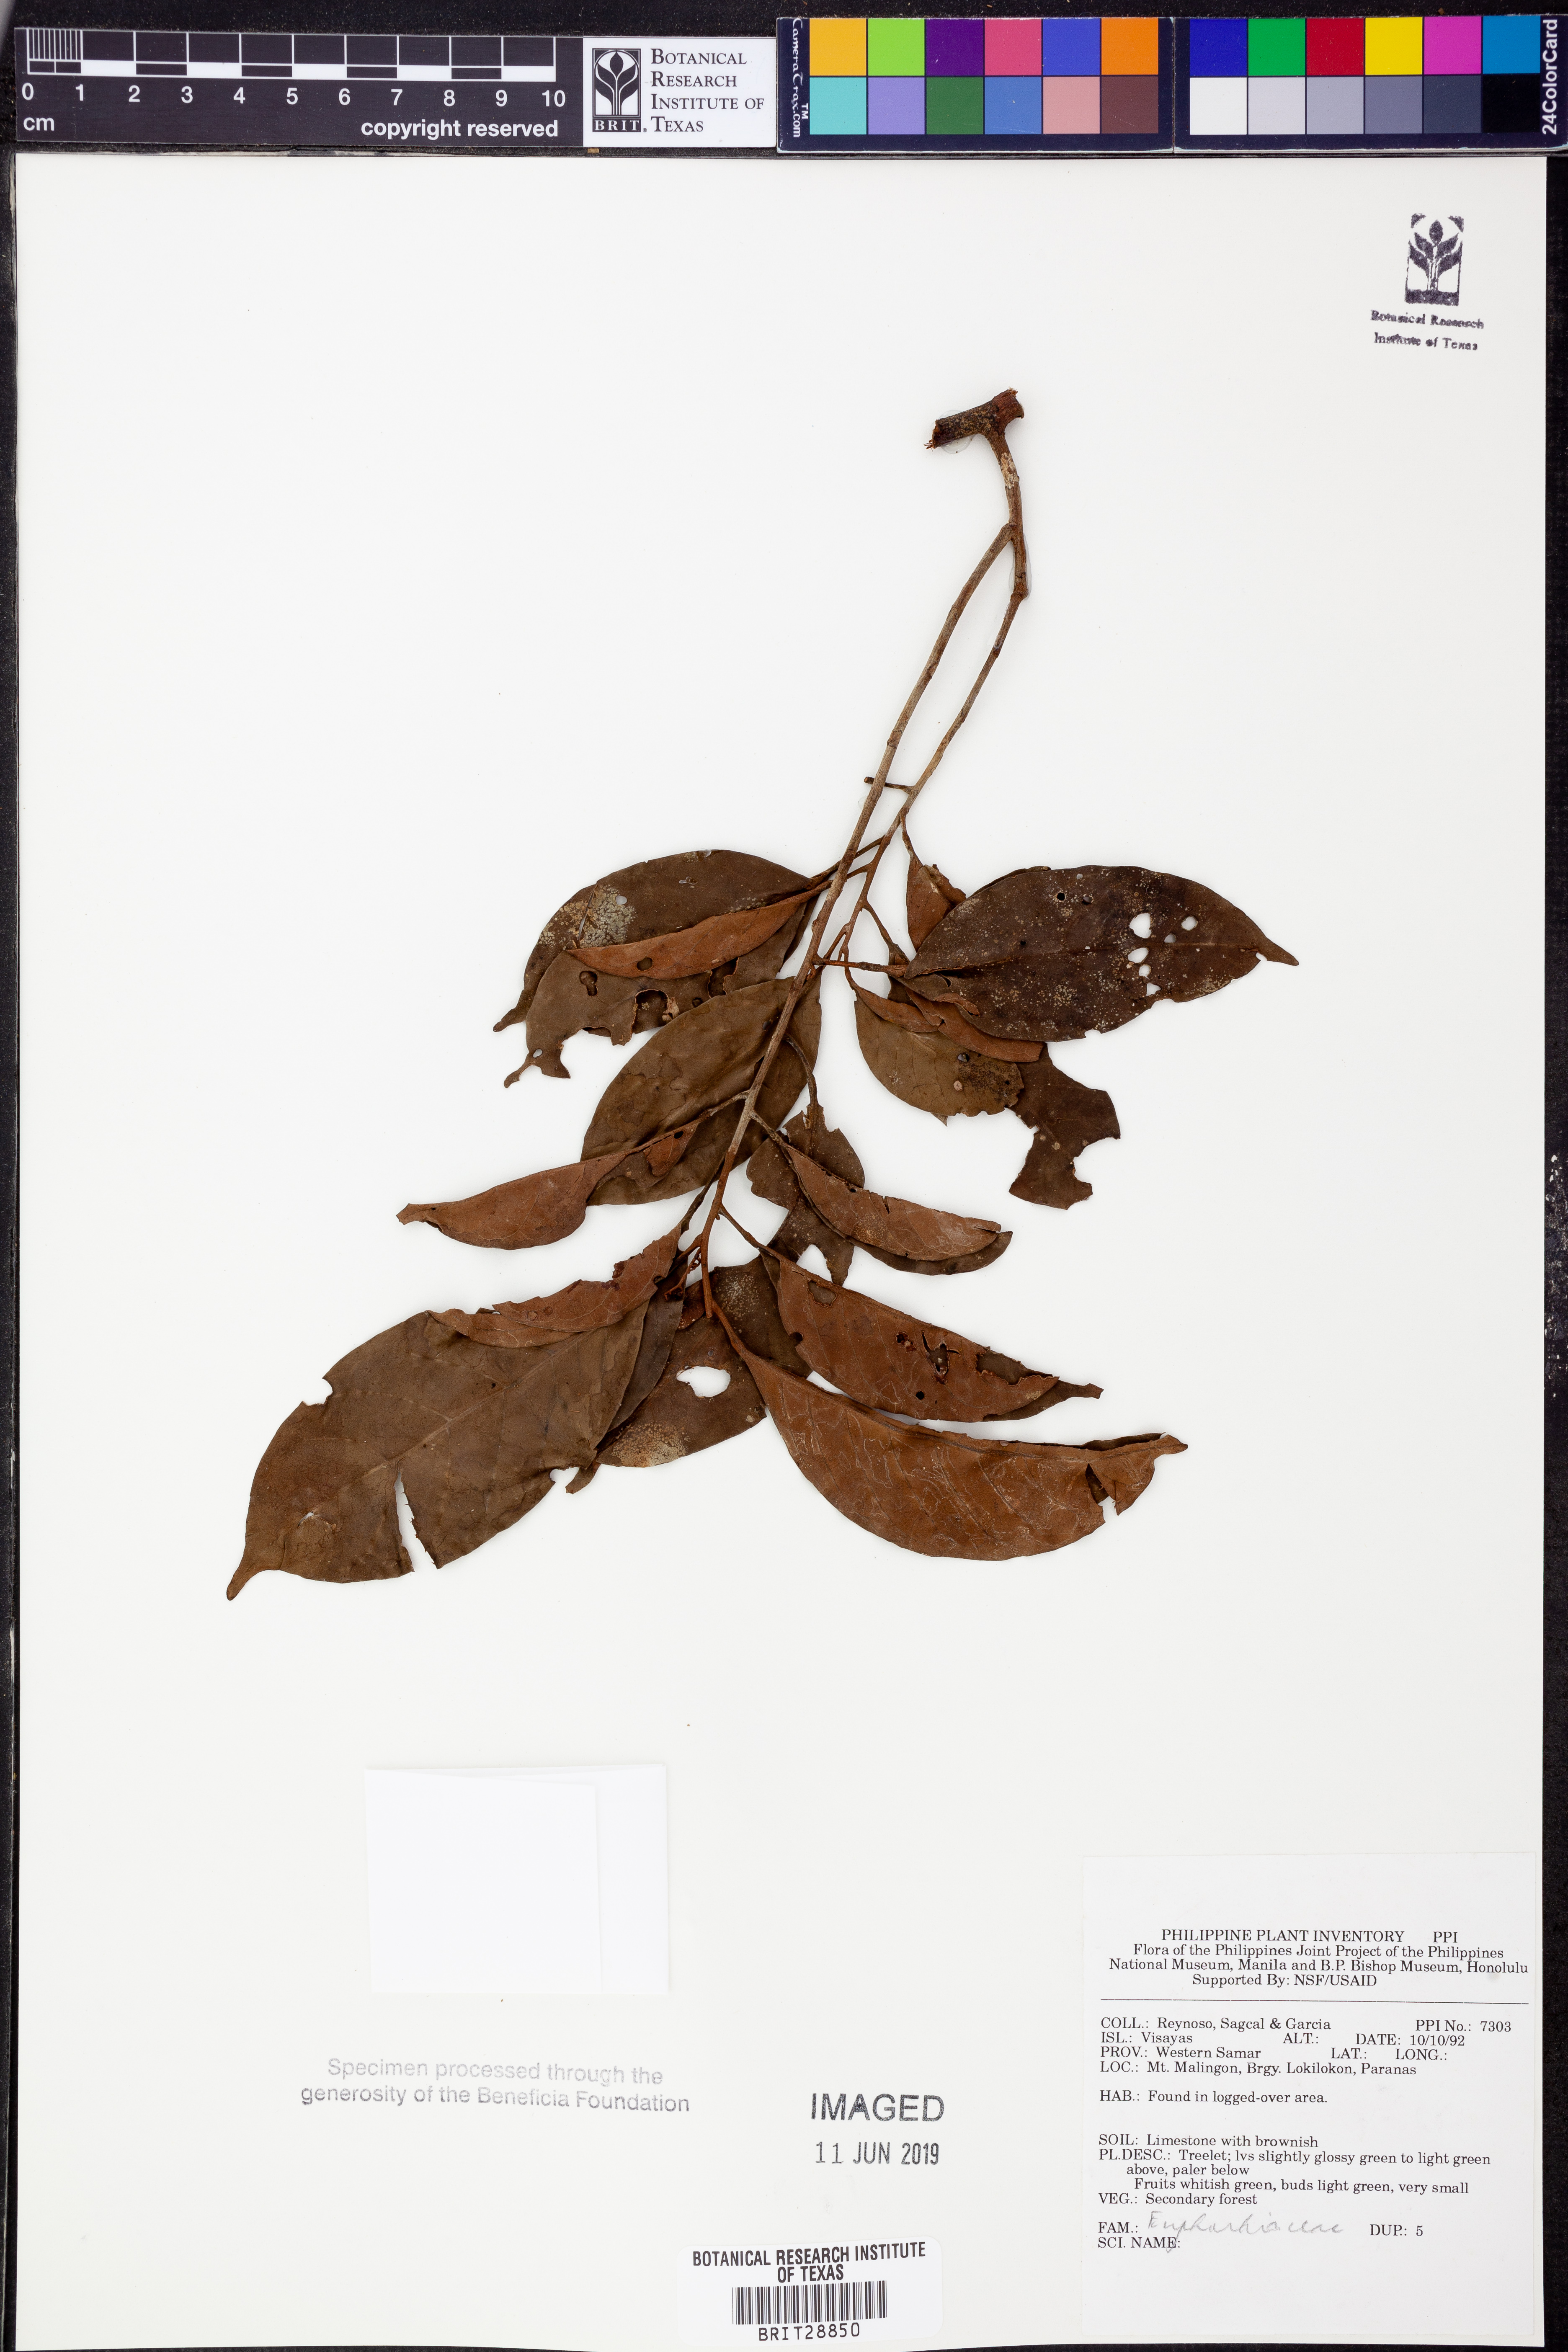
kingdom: Plantae
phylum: Tracheophyta
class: Magnoliopsida
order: Malpighiales
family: Euphorbiaceae
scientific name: Euphorbiaceae
